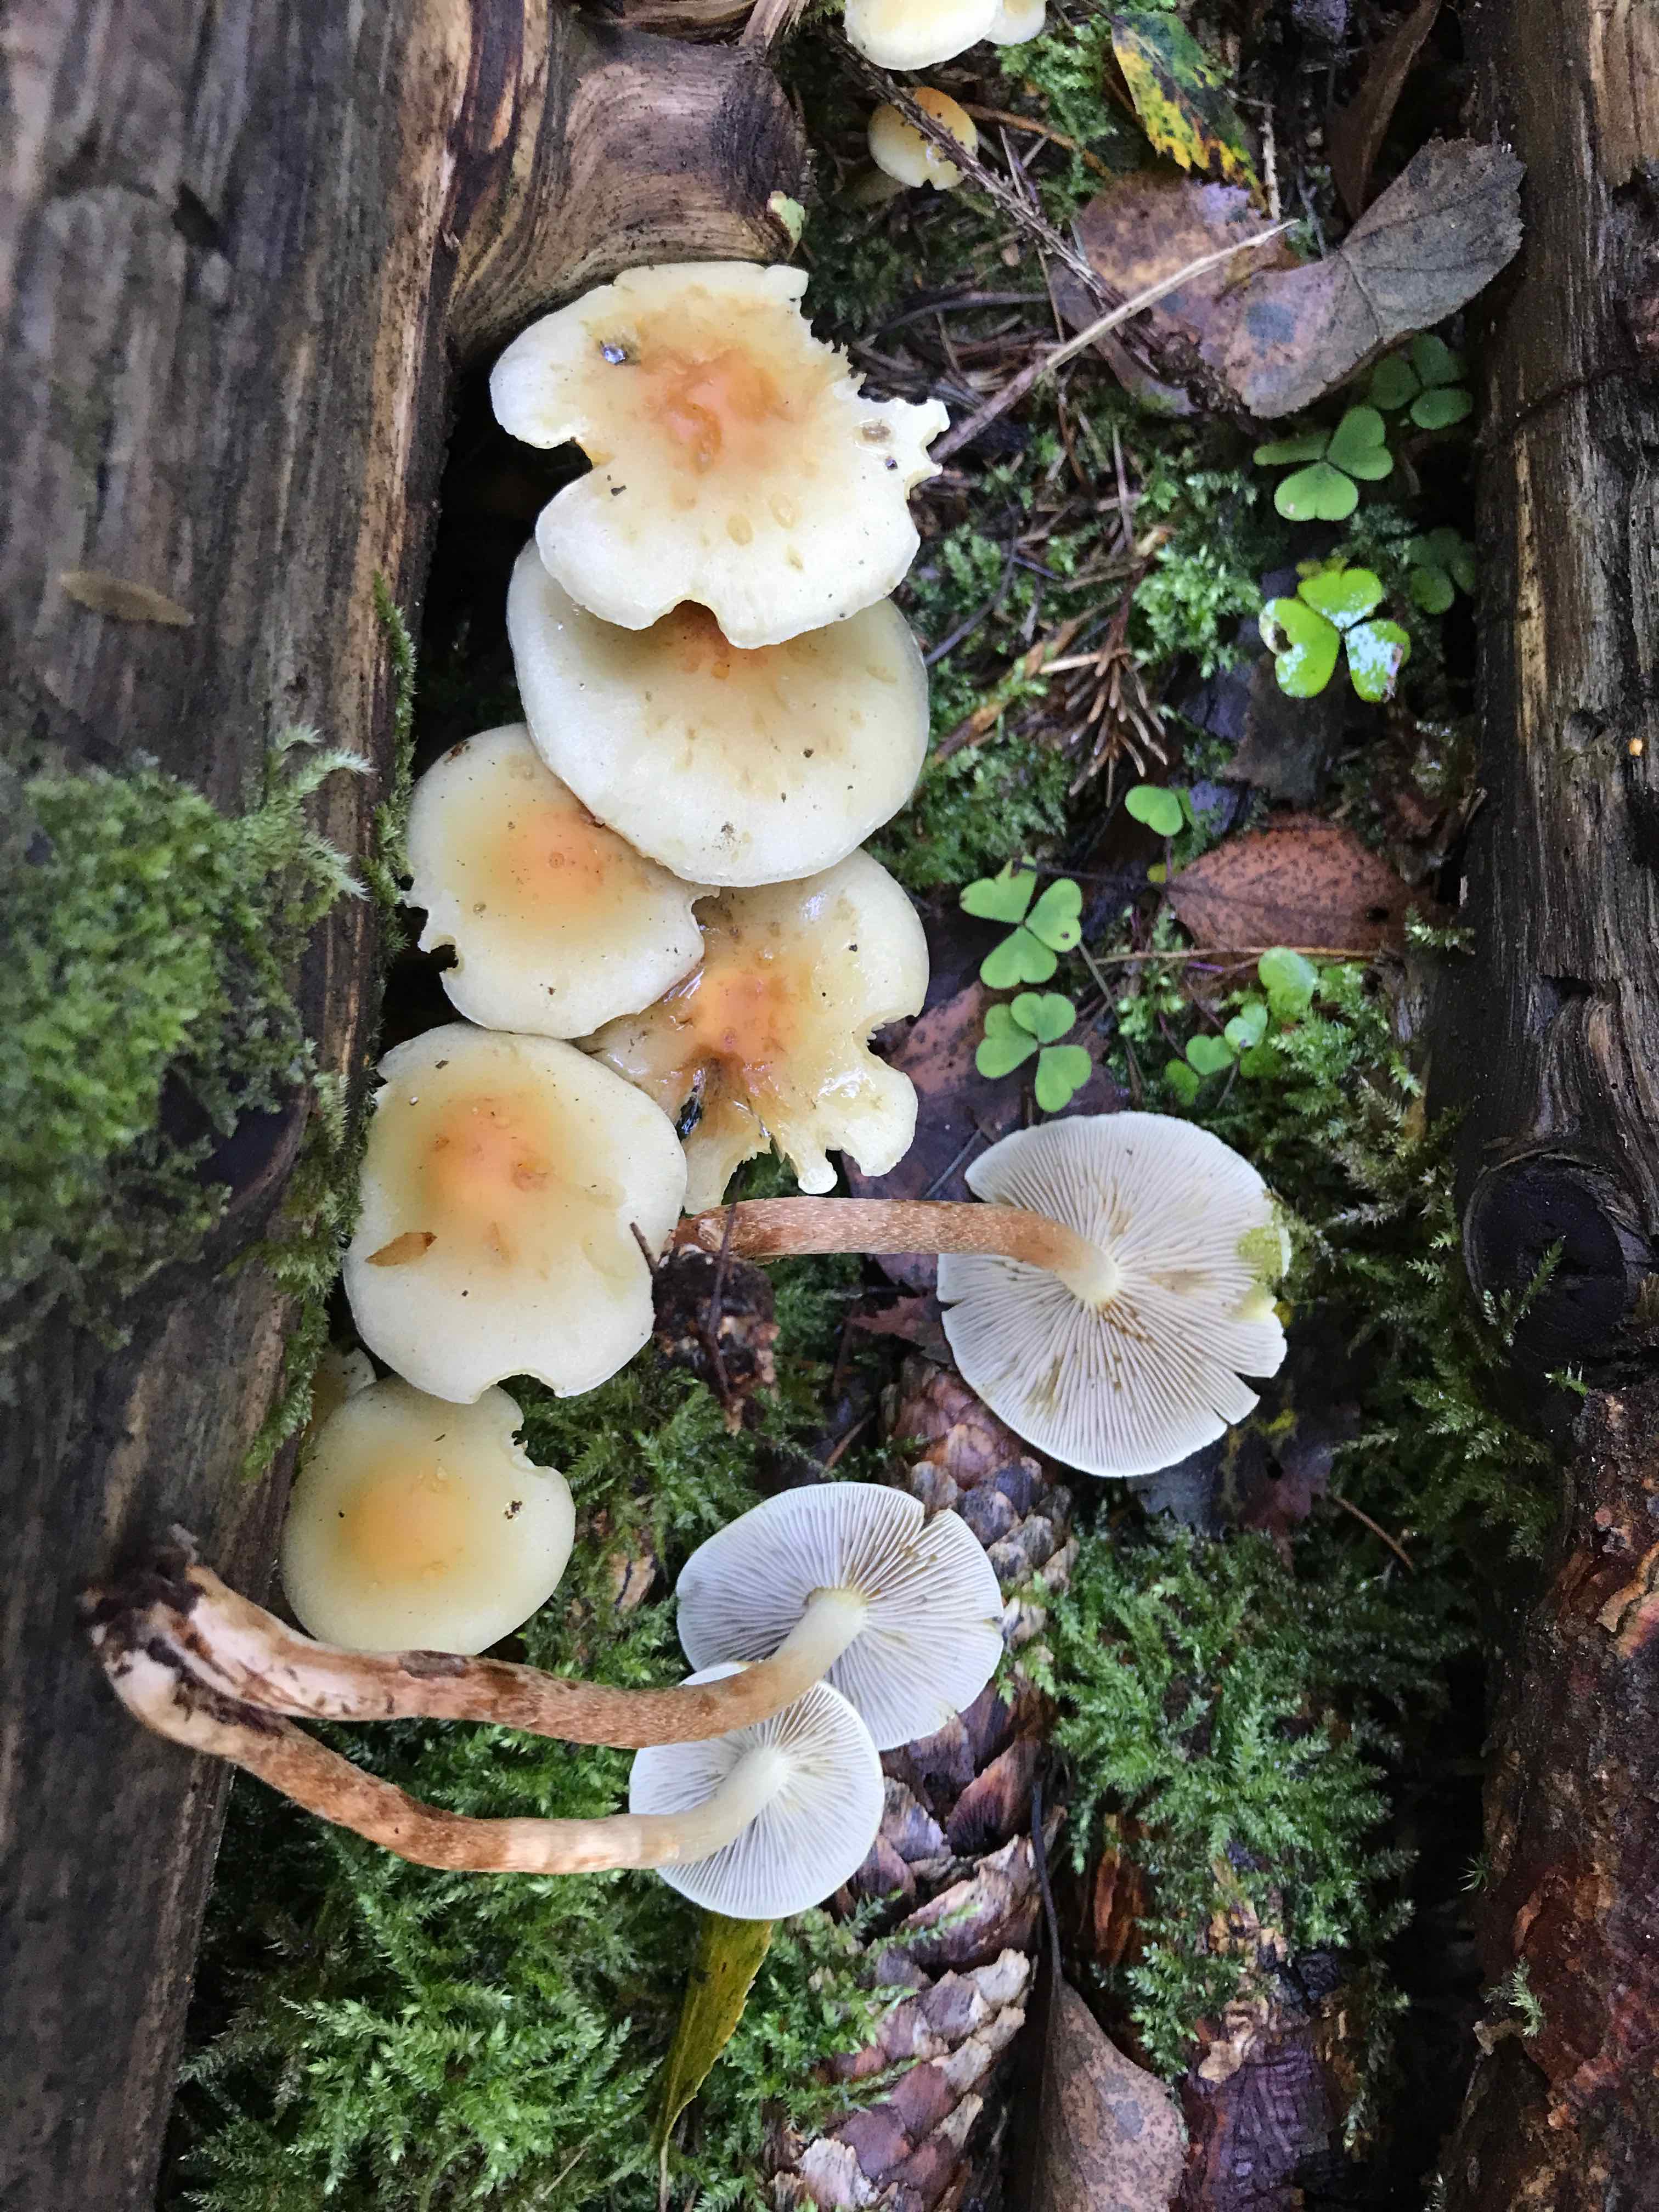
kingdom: Fungi
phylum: Basidiomycota
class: Agaricomycetes
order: Agaricales
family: Strophariaceae
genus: Hypholoma
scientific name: Hypholoma capnoides
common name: gran-svovlhat
